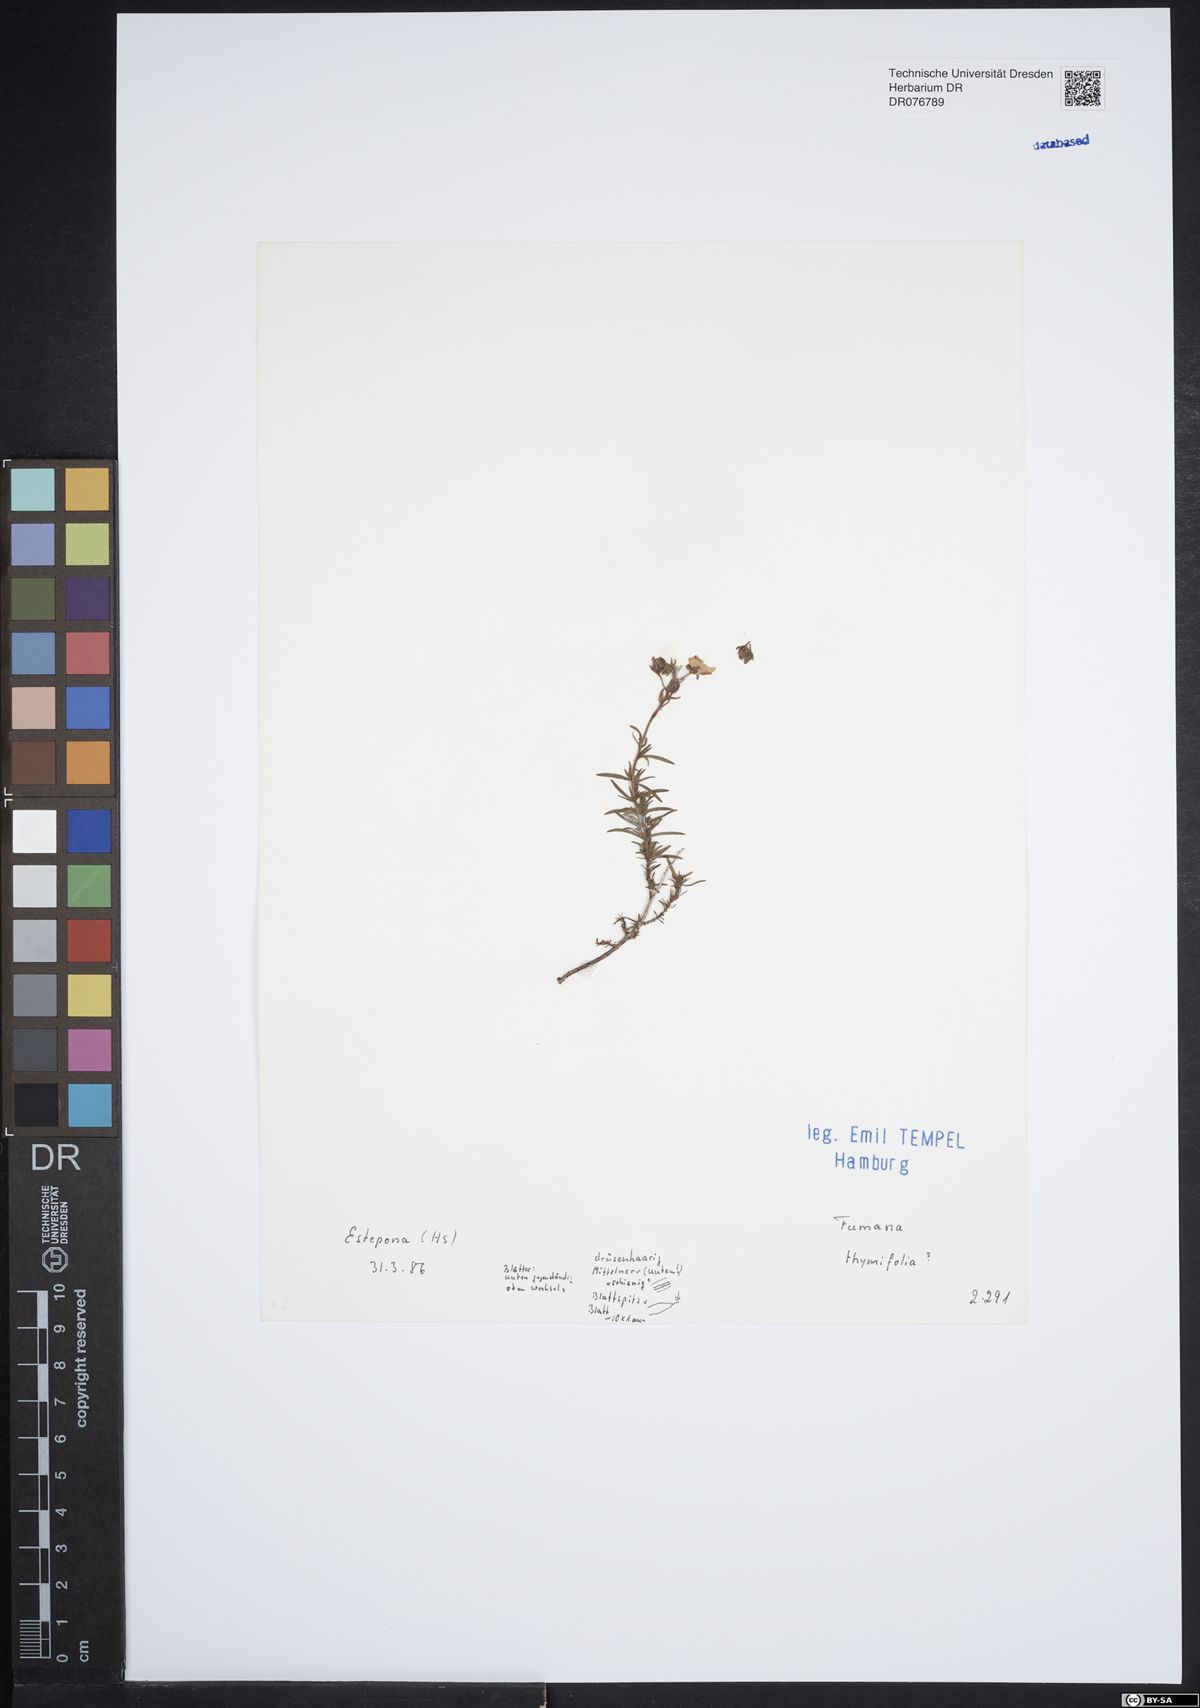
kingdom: Plantae
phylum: Tracheophyta
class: Magnoliopsida
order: Malvales
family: Cistaceae
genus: Fumana
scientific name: Fumana thymifolia
